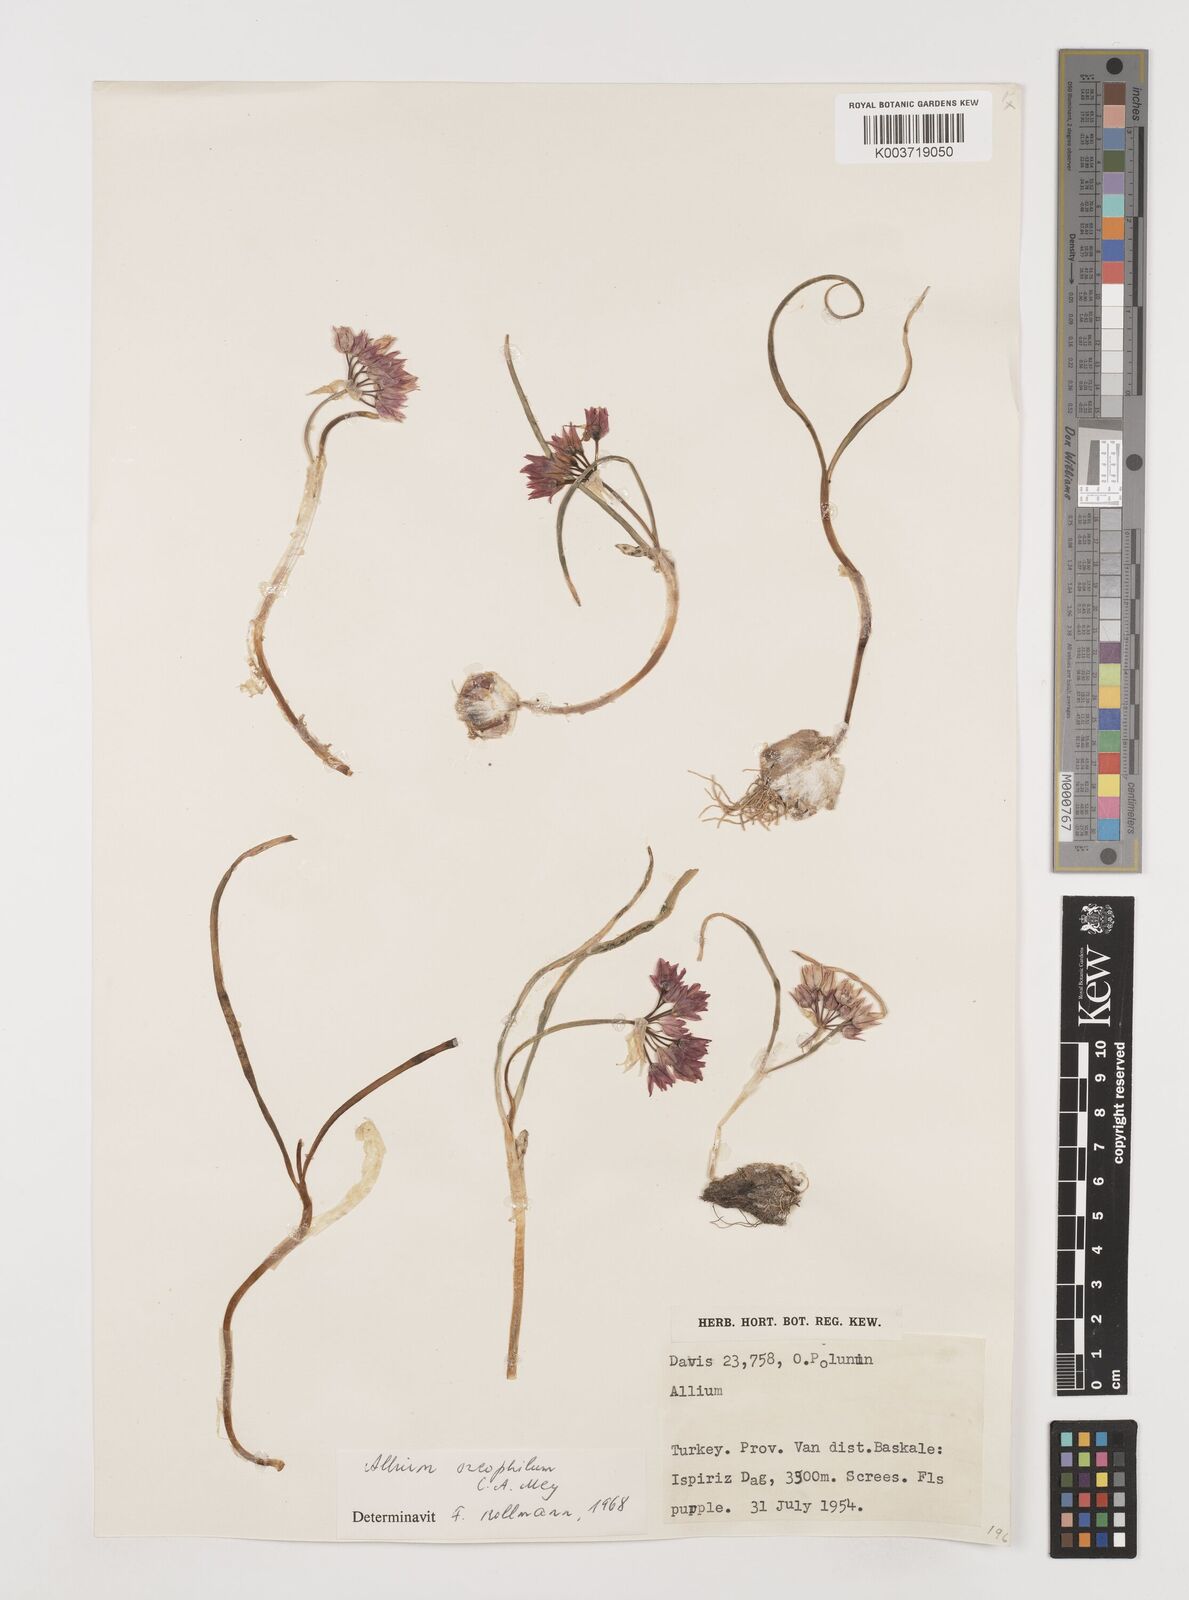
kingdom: Plantae
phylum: Tracheophyta
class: Liliopsida
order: Asparagales
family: Amaryllidaceae
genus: Allium
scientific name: Allium oreophilum
